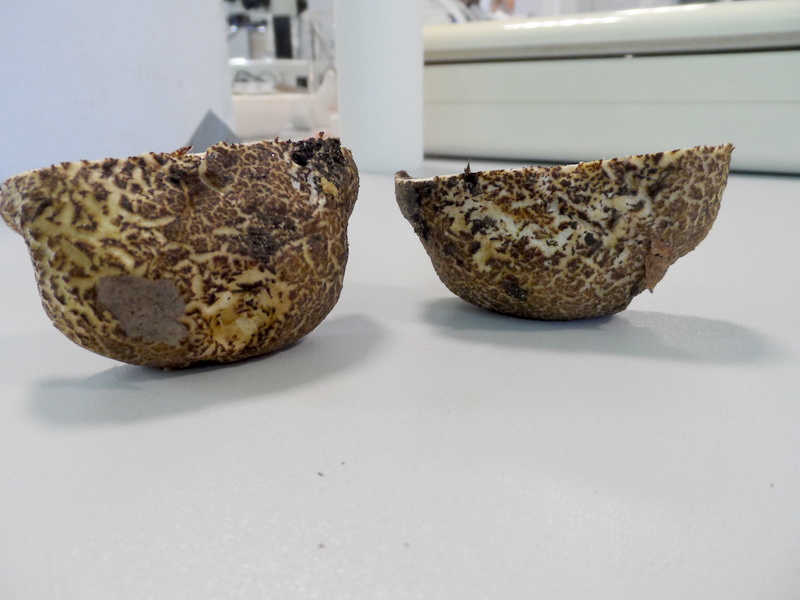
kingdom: Fungi
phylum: Basidiomycota
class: Agaricomycetes
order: Boletales
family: Boletaceae
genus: Xerocomellus
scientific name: Xerocomellus cisalpinus
